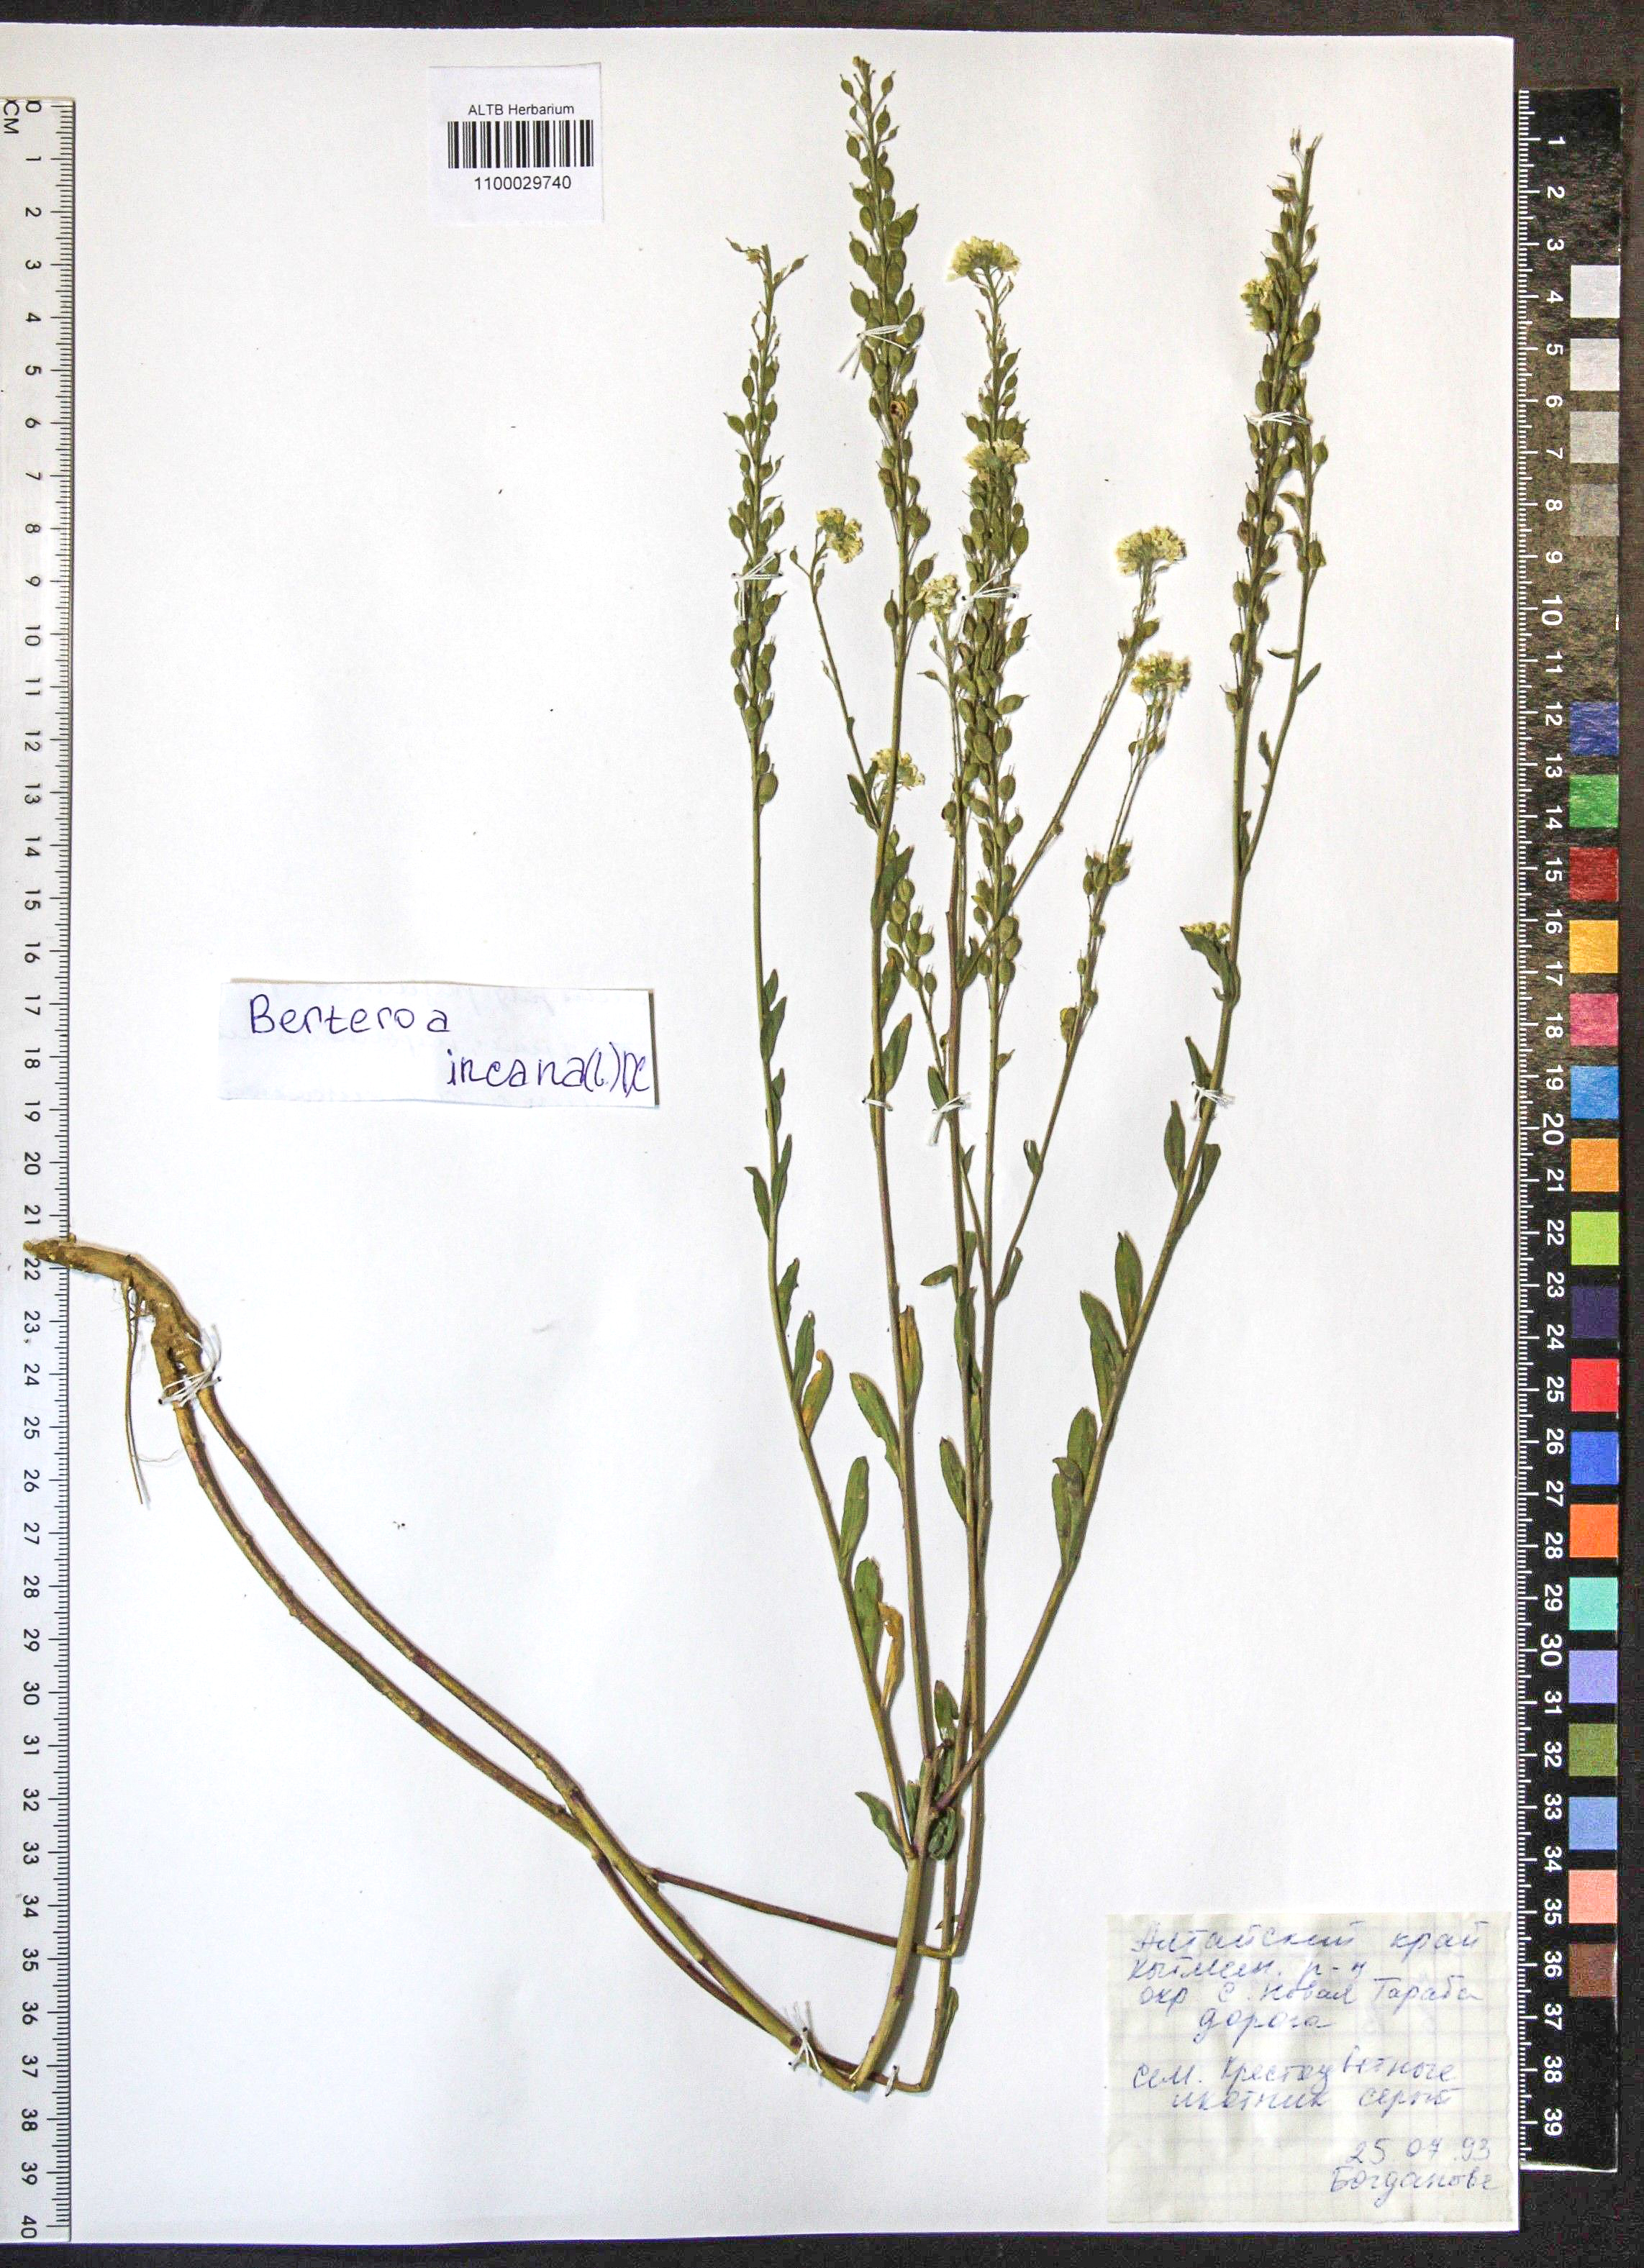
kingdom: Plantae
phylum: Tracheophyta
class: Magnoliopsida
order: Brassicales
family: Brassicaceae
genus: Berteroa
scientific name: Berteroa incana
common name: Hoary alison
